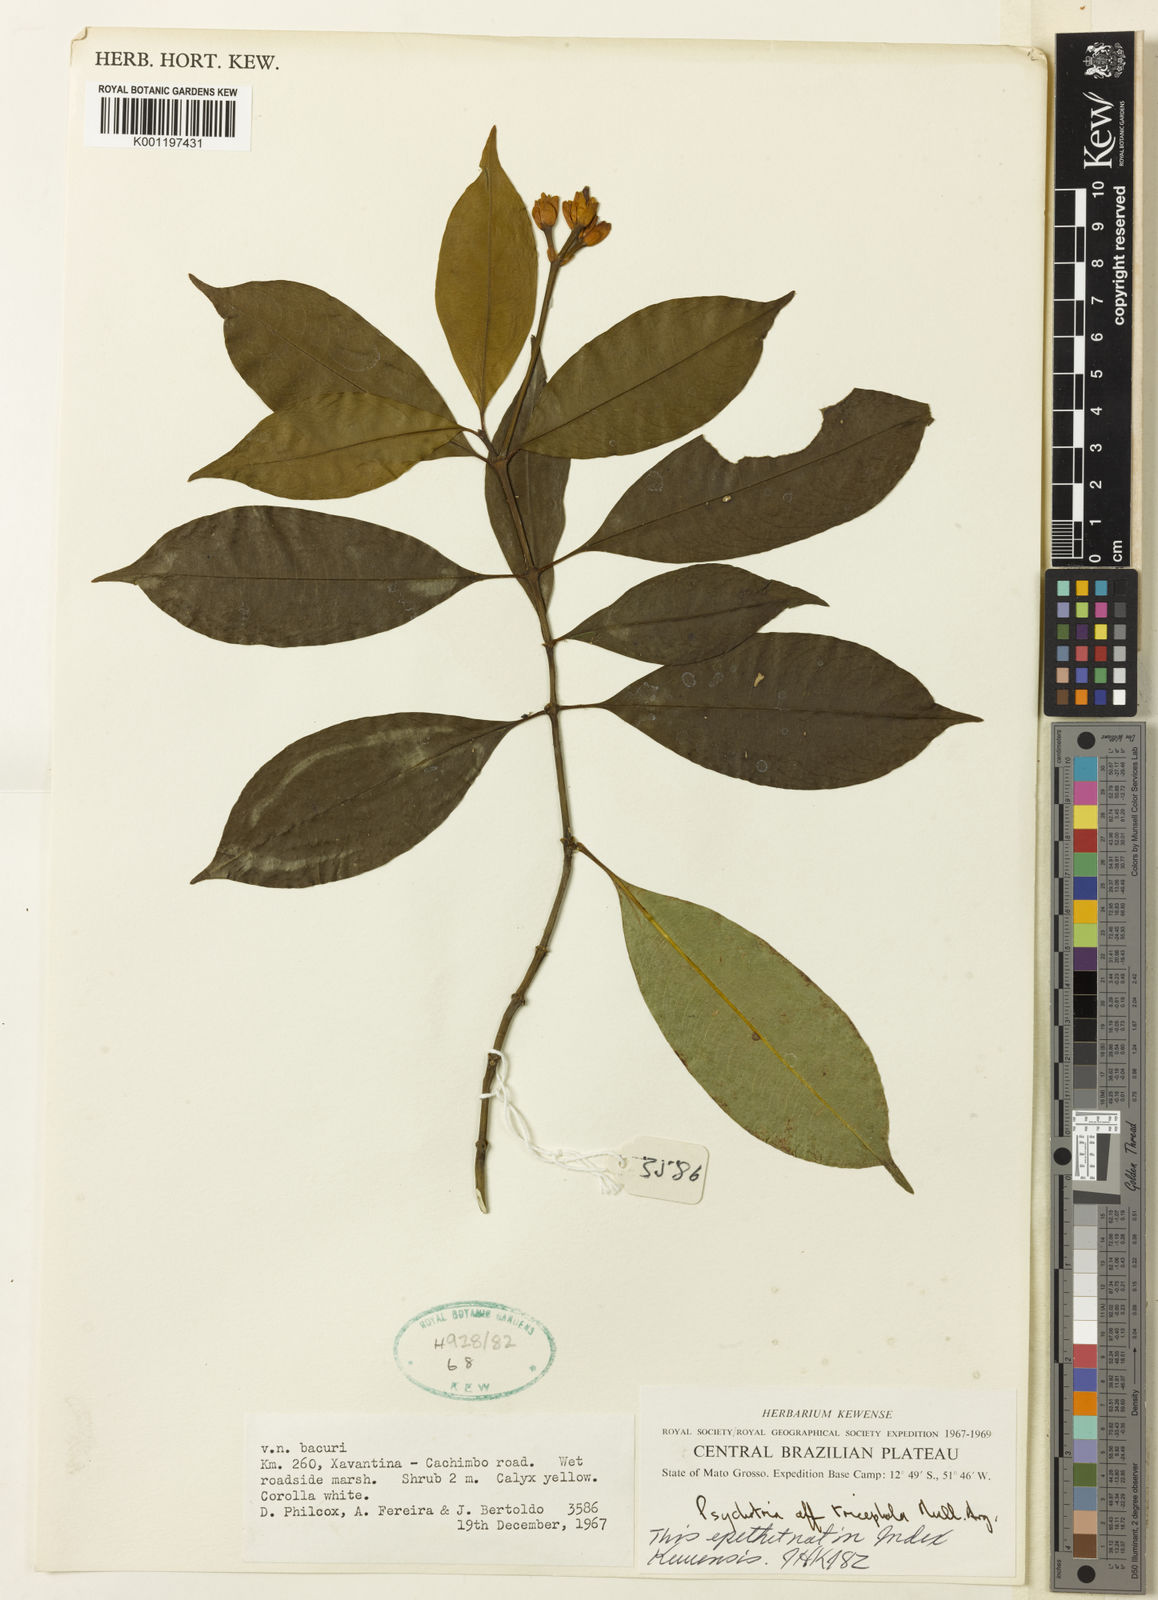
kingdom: Plantae
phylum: Tracheophyta
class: Magnoliopsida
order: Gentianales
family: Rubiaceae
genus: Psychotria
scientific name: Psychotria
